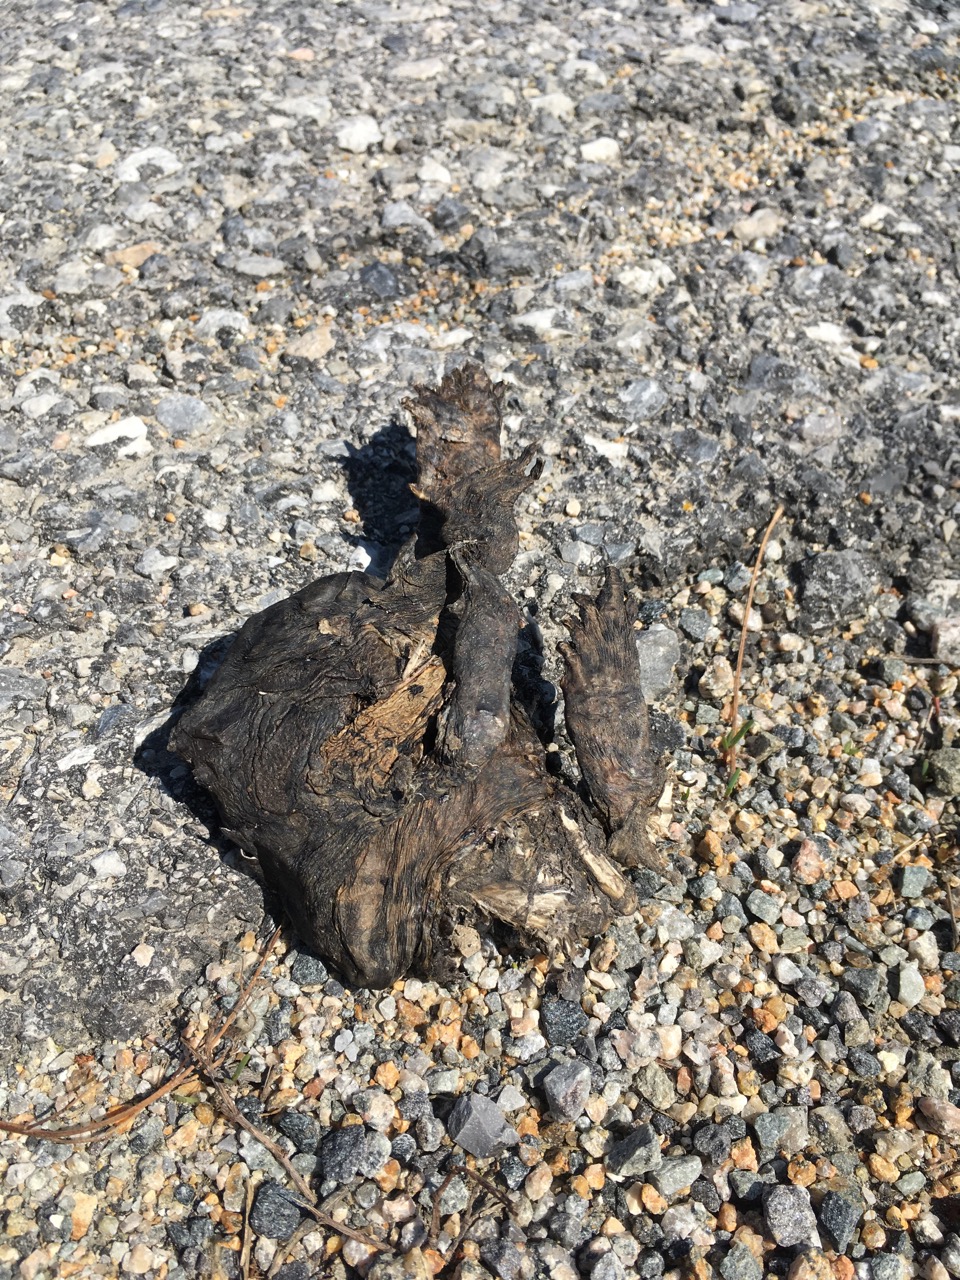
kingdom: Animalia
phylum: Chordata
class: Amphibia
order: Anura
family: Bufonidae
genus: Bufo
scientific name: Bufo bufo
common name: Common toad
